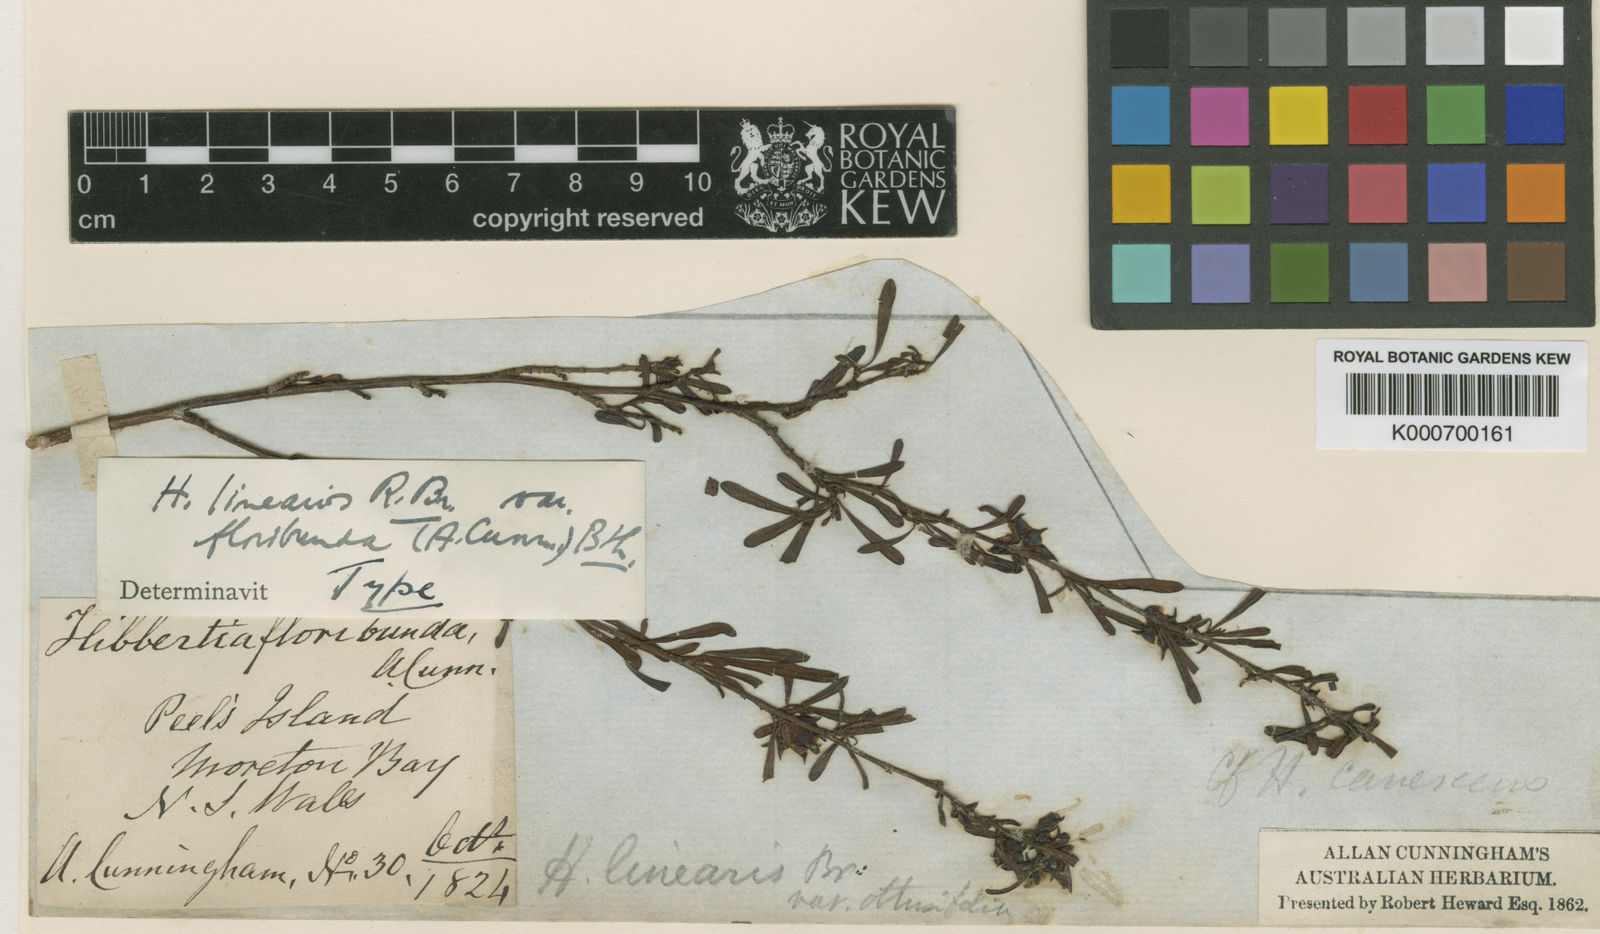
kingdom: Plantae
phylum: Tracheophyta
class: Magnoliopsida
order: Dilleniales
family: Dilleniaceae
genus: Hibbertia
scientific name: Hibbertia linearis
